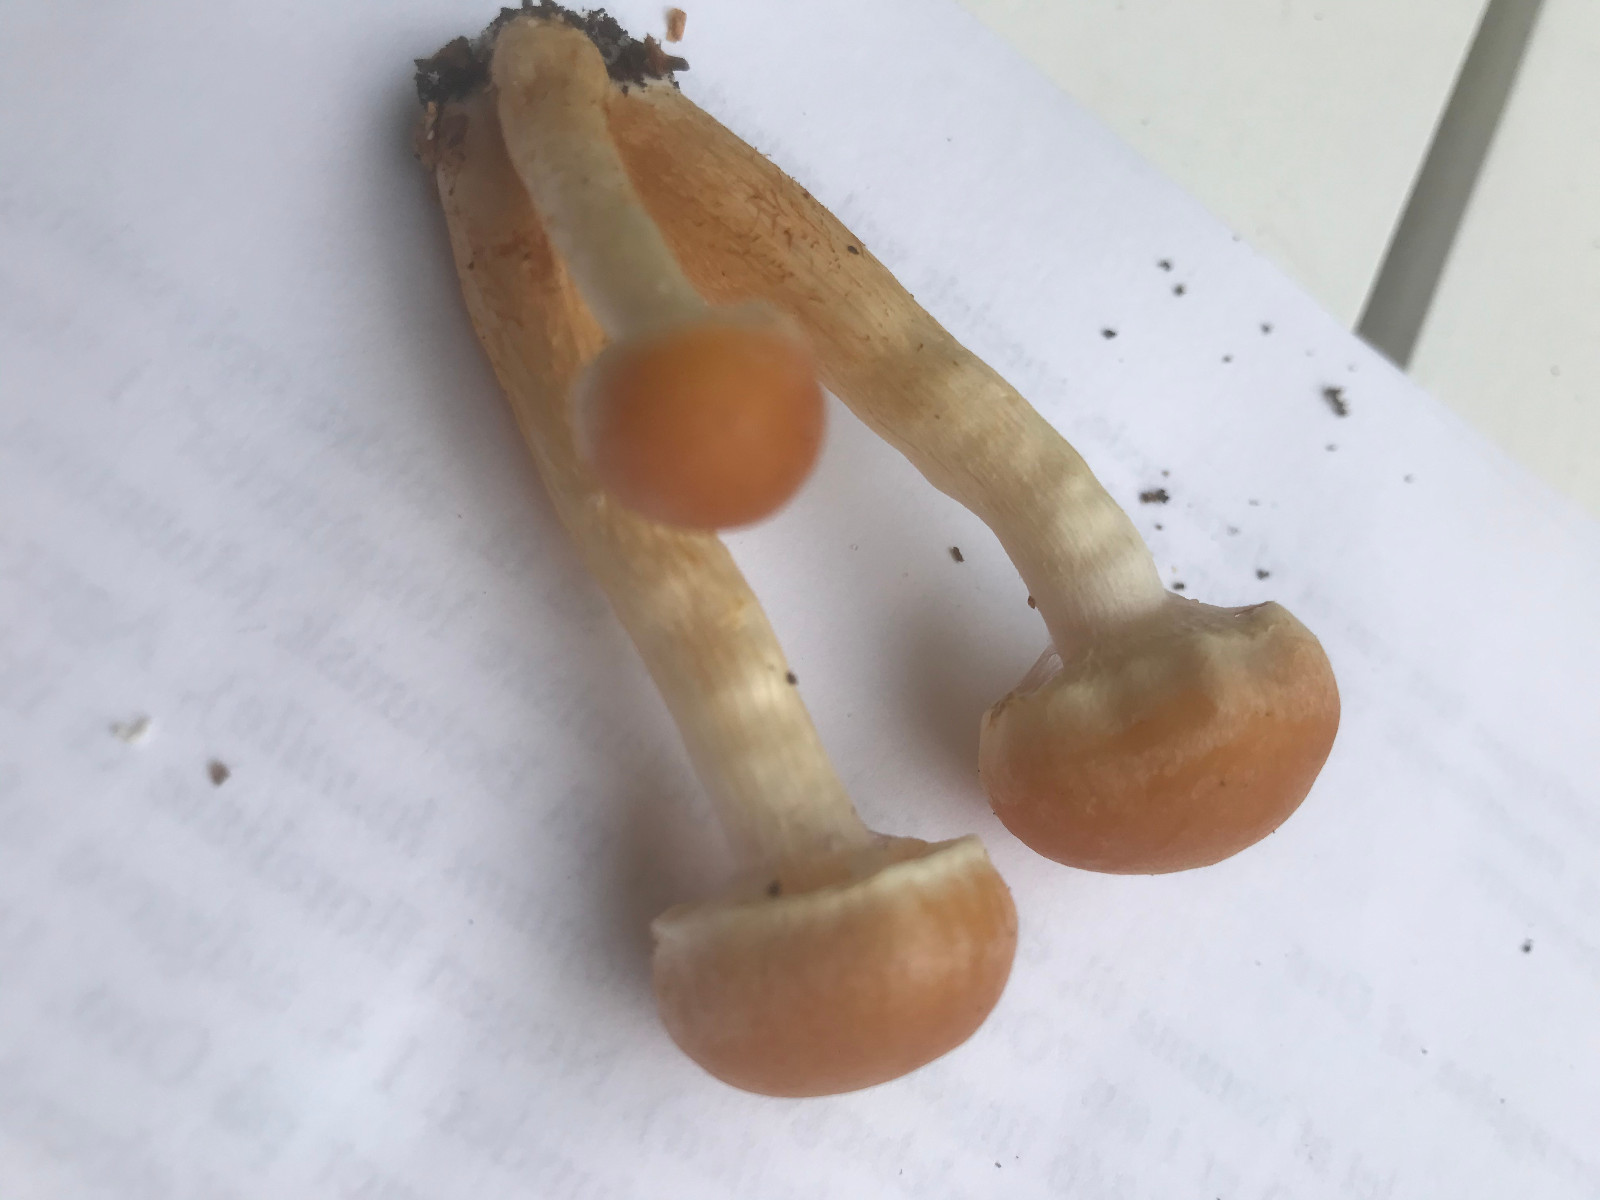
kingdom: Fungi
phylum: Basidiomycota
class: Agaricomycetes
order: Agaricales
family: Strophariaceae
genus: Hypholoma
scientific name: Hypholoma
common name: svovlhat
